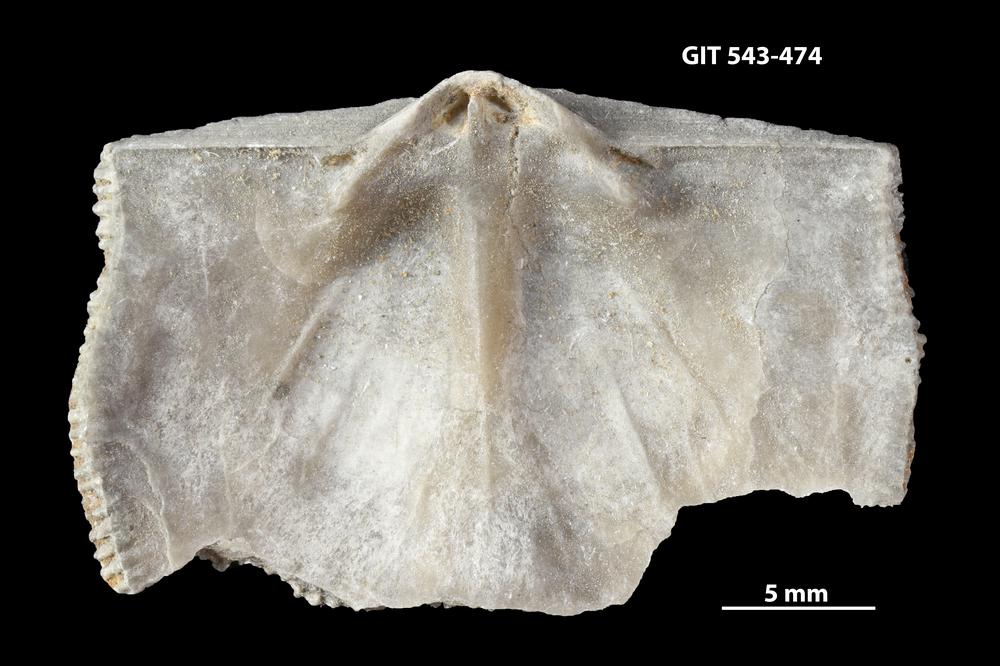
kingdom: Animalia
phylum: Brachiopoda
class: Rhynchonellata
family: Clitambonitidae
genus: Clitambonites
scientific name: Clitambonites squamatus
